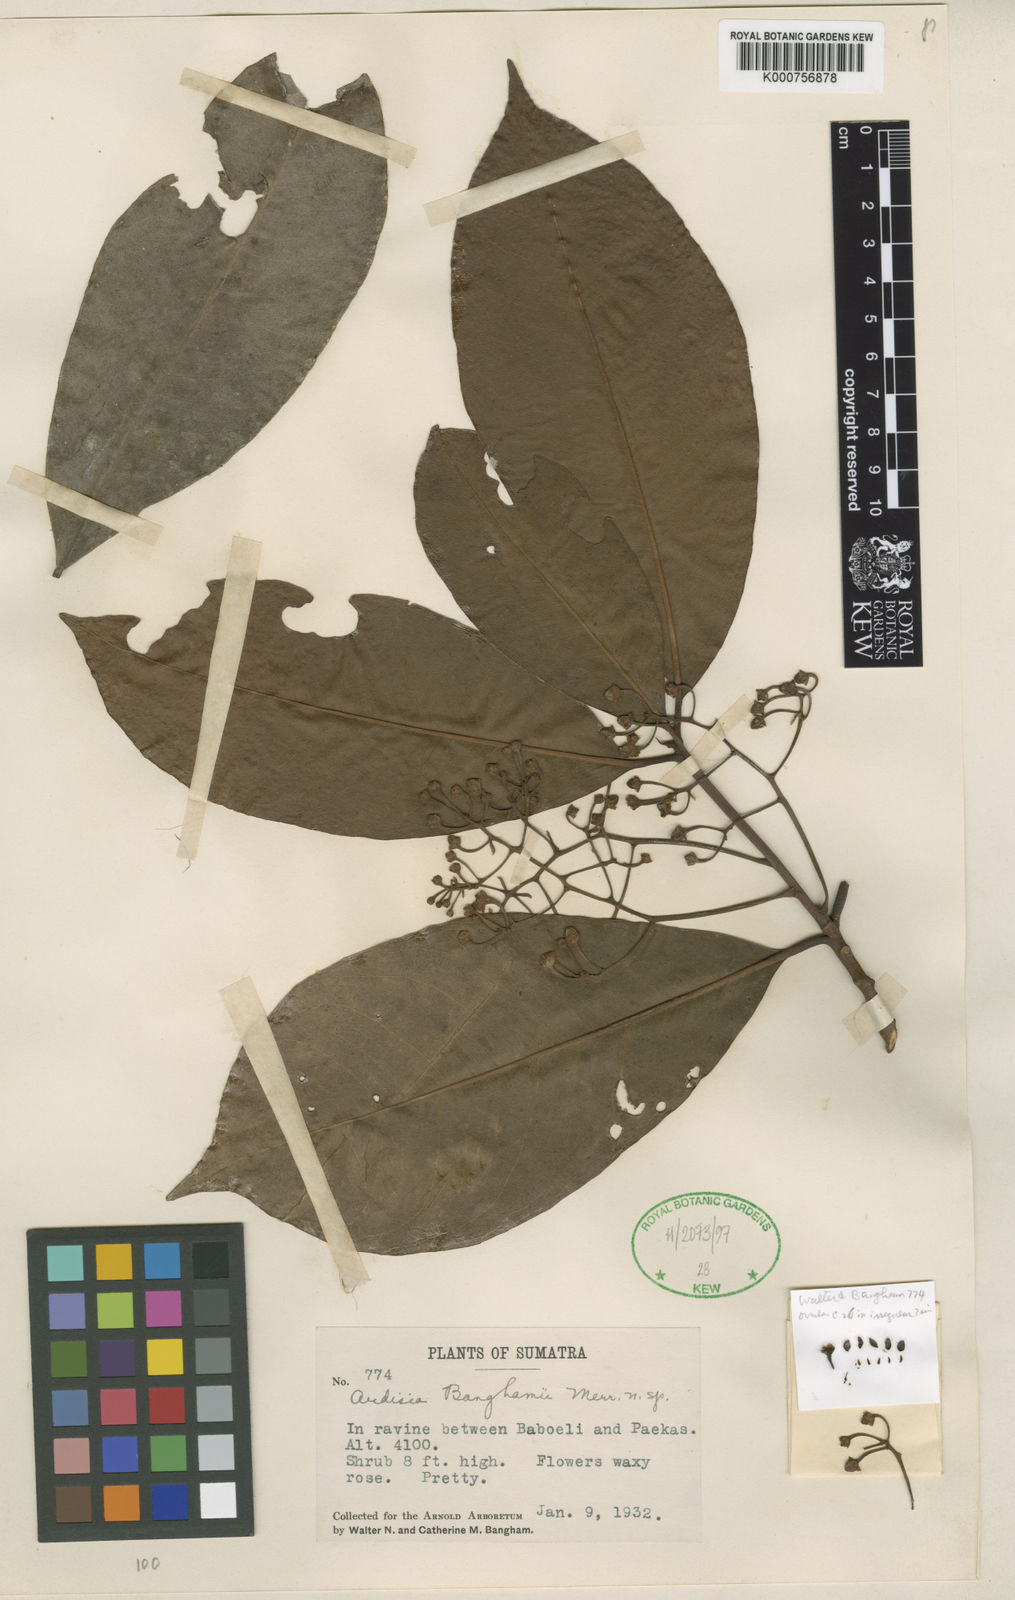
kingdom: Plantae
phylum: Tracheophyta
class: Magnoliopsida
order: Ericales
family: Primulaceae
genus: Ardisia
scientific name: Ardisia banghamii
